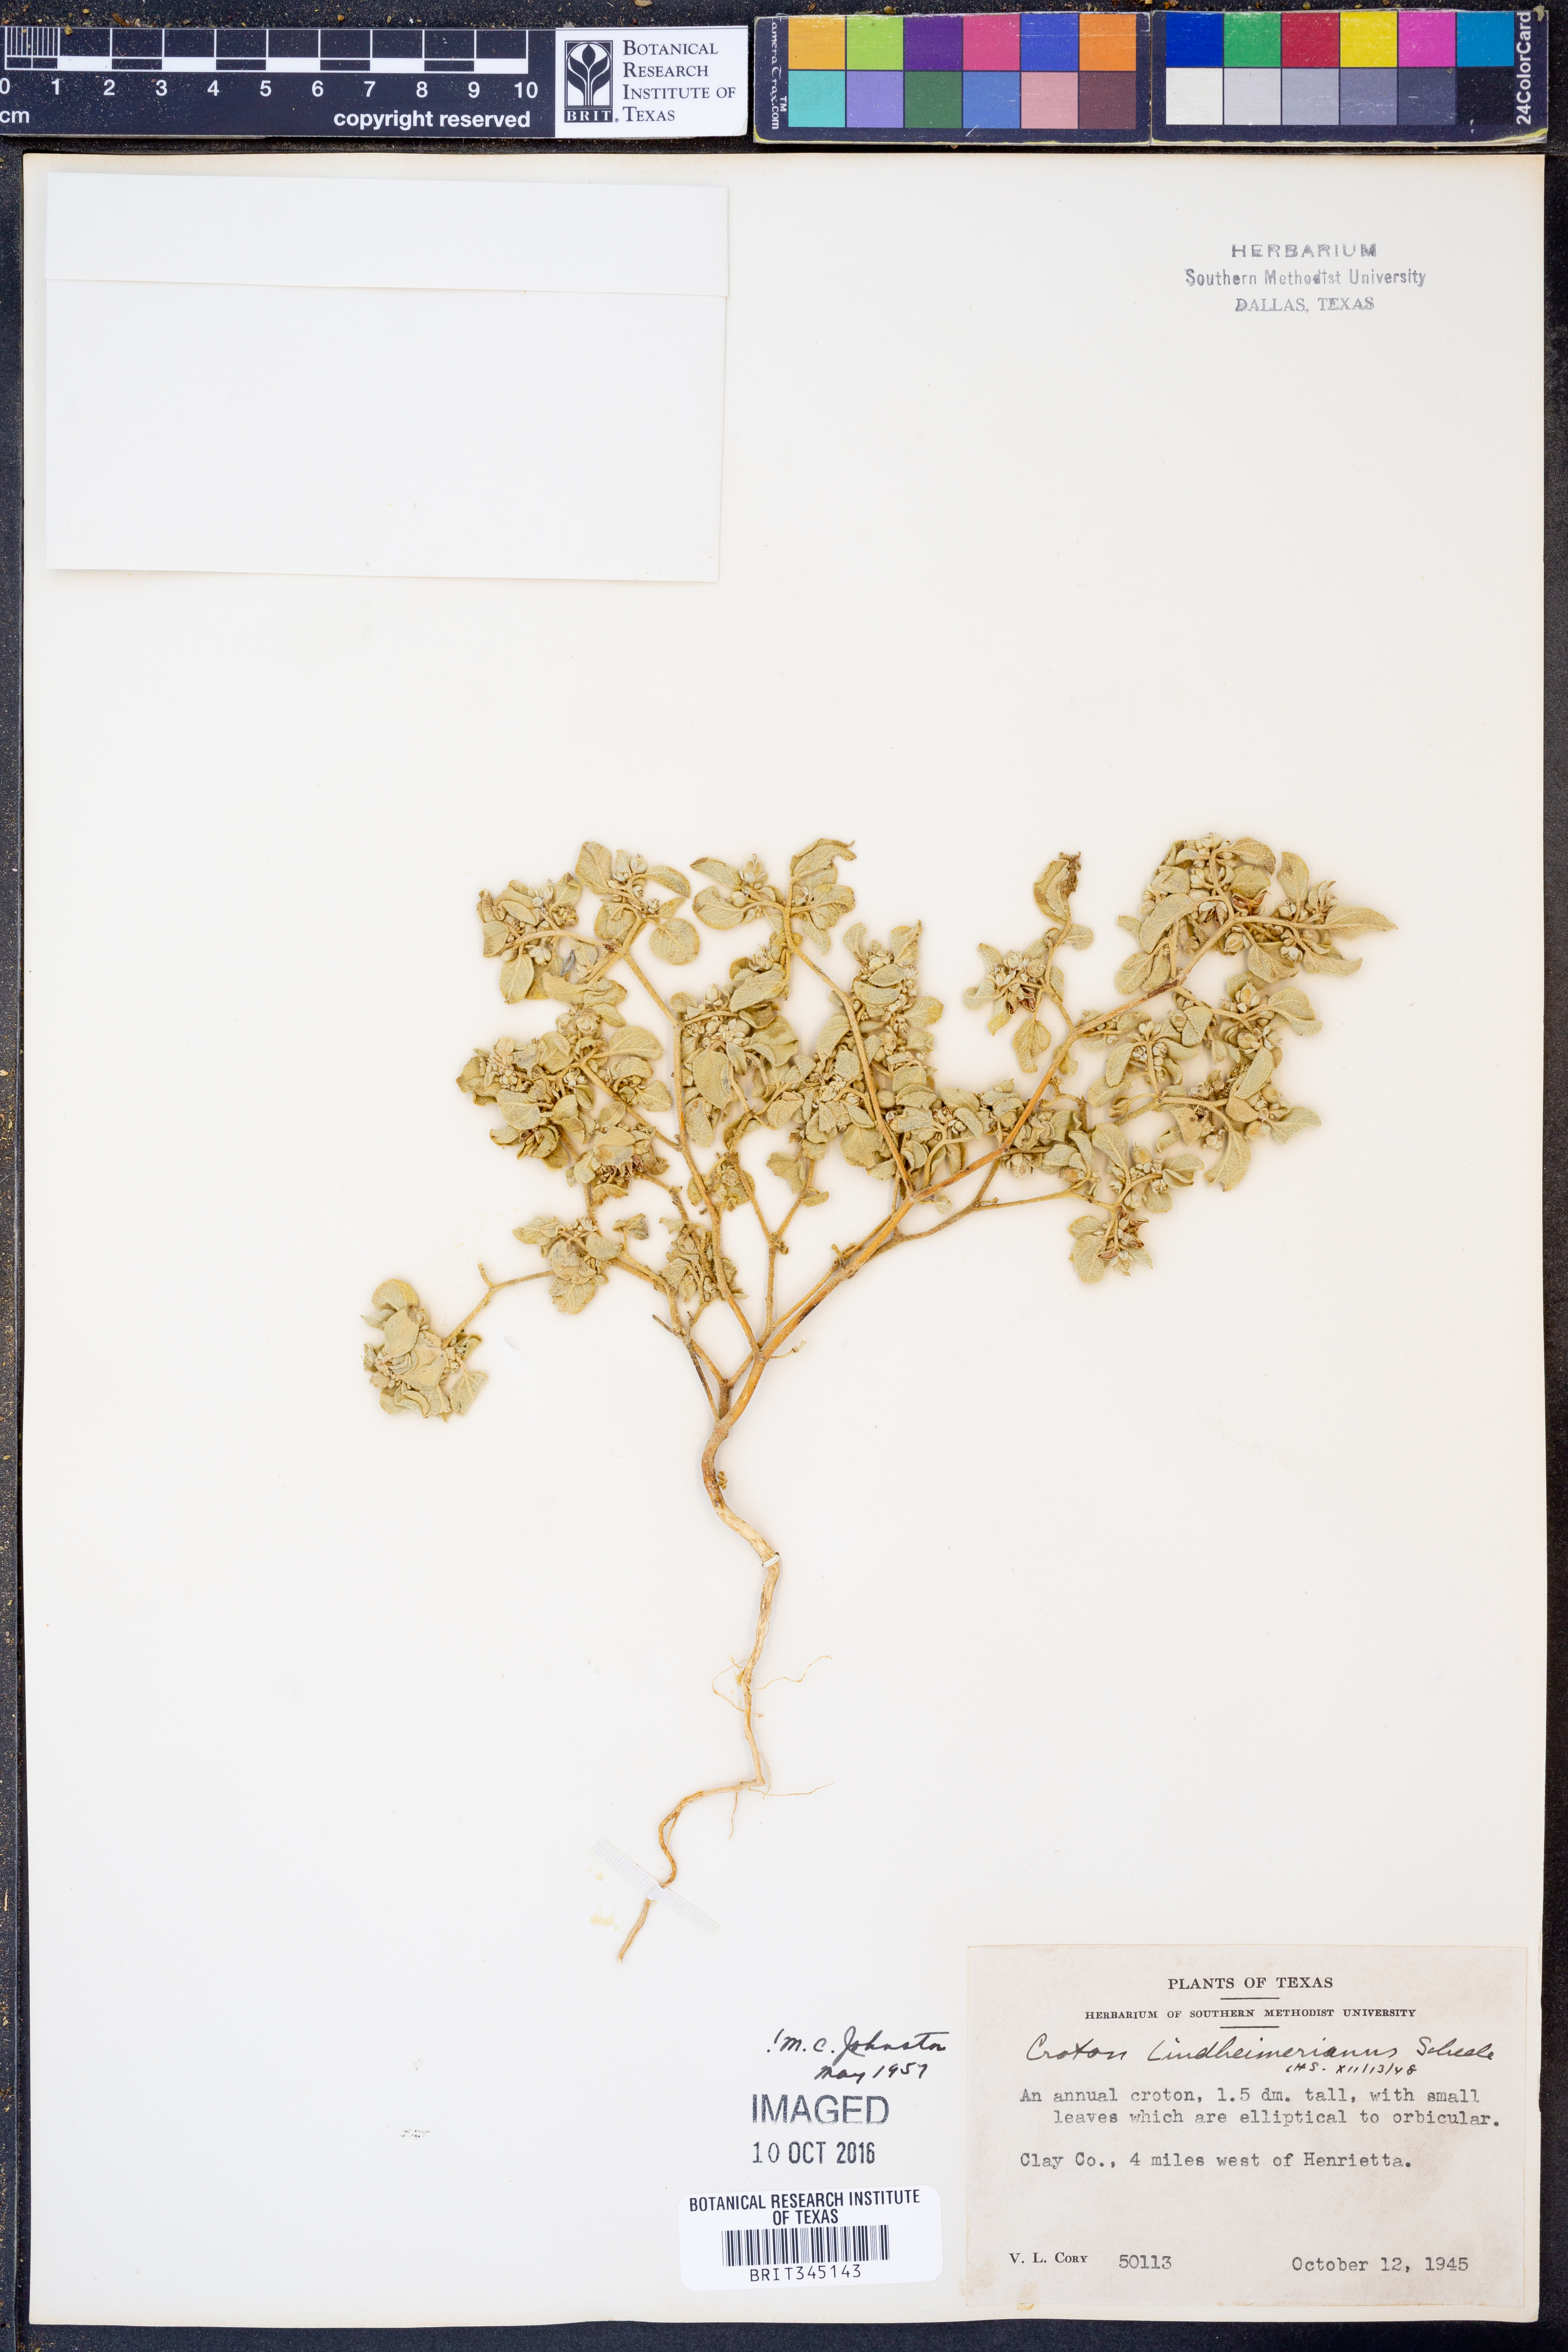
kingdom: Plantae
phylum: Tracheophyta
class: Magnoliopsida
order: Malpighiales
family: Euphorbiaceae
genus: Croton
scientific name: Croton lindheimerianus
